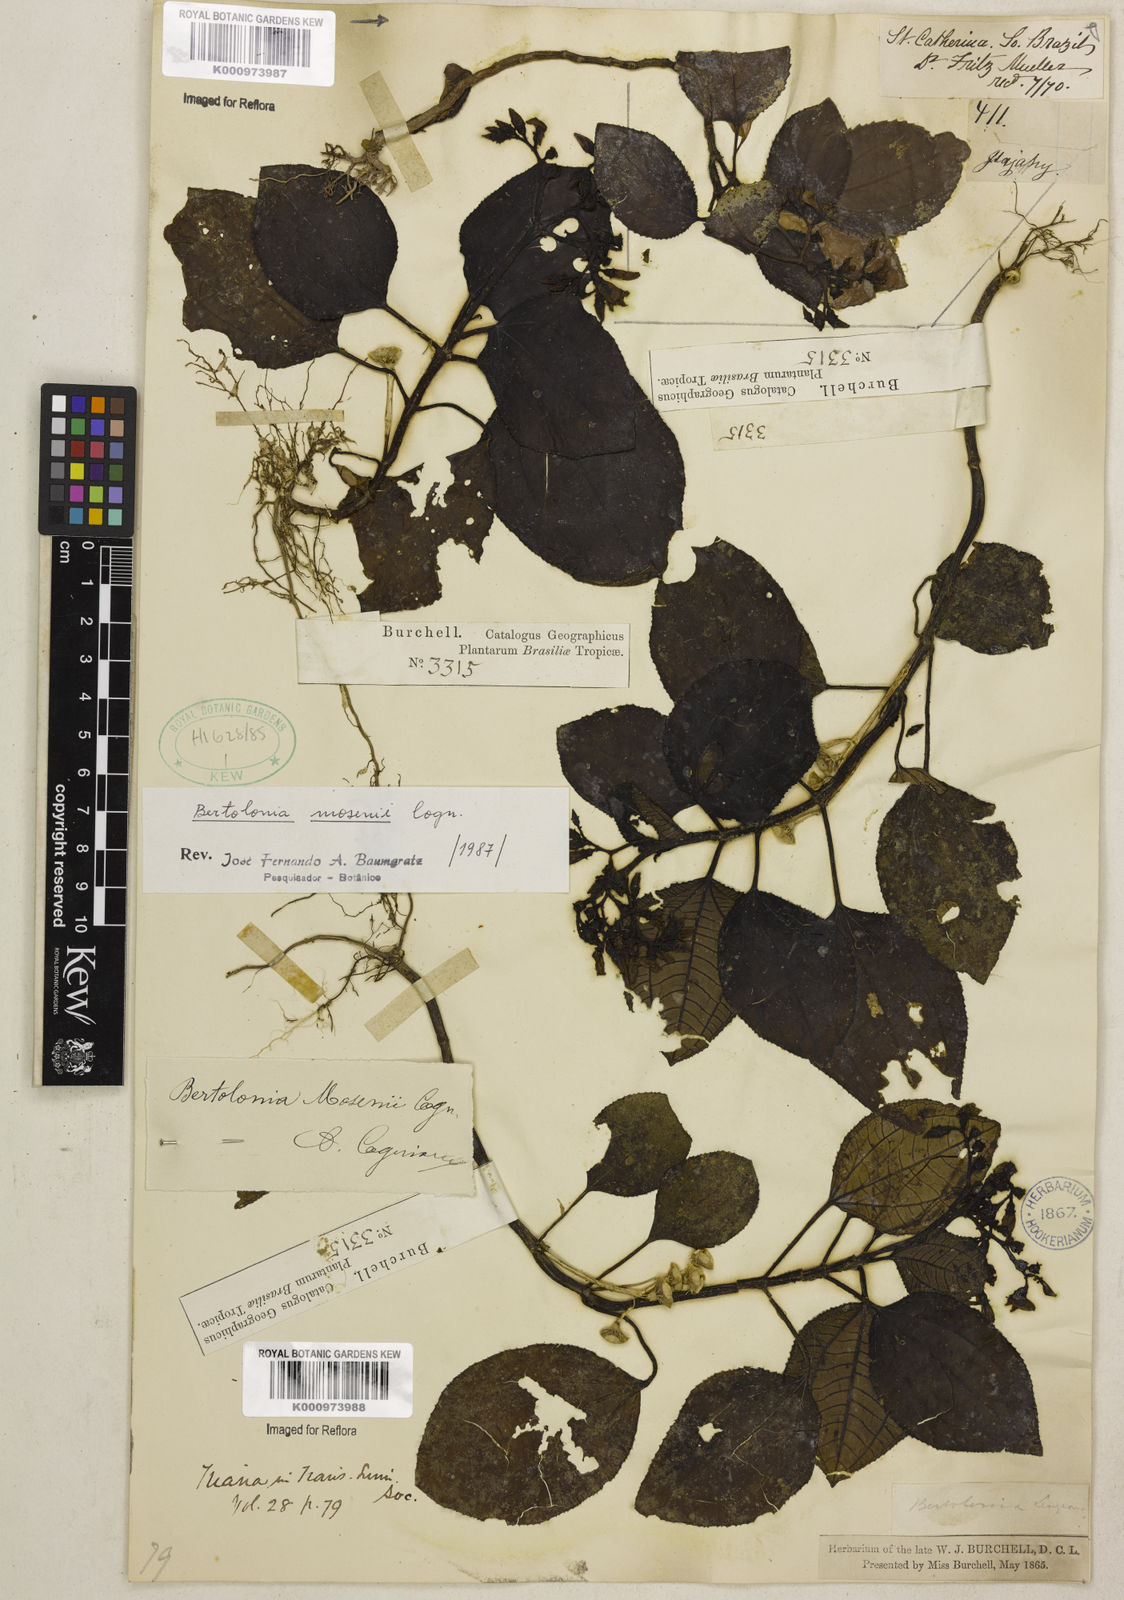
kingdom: Plantae
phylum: Tracheophyta
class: Magnoliopsida
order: Myrtales
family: Melastomataceae
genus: Bertolonia
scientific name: Bertolonia mosenii
